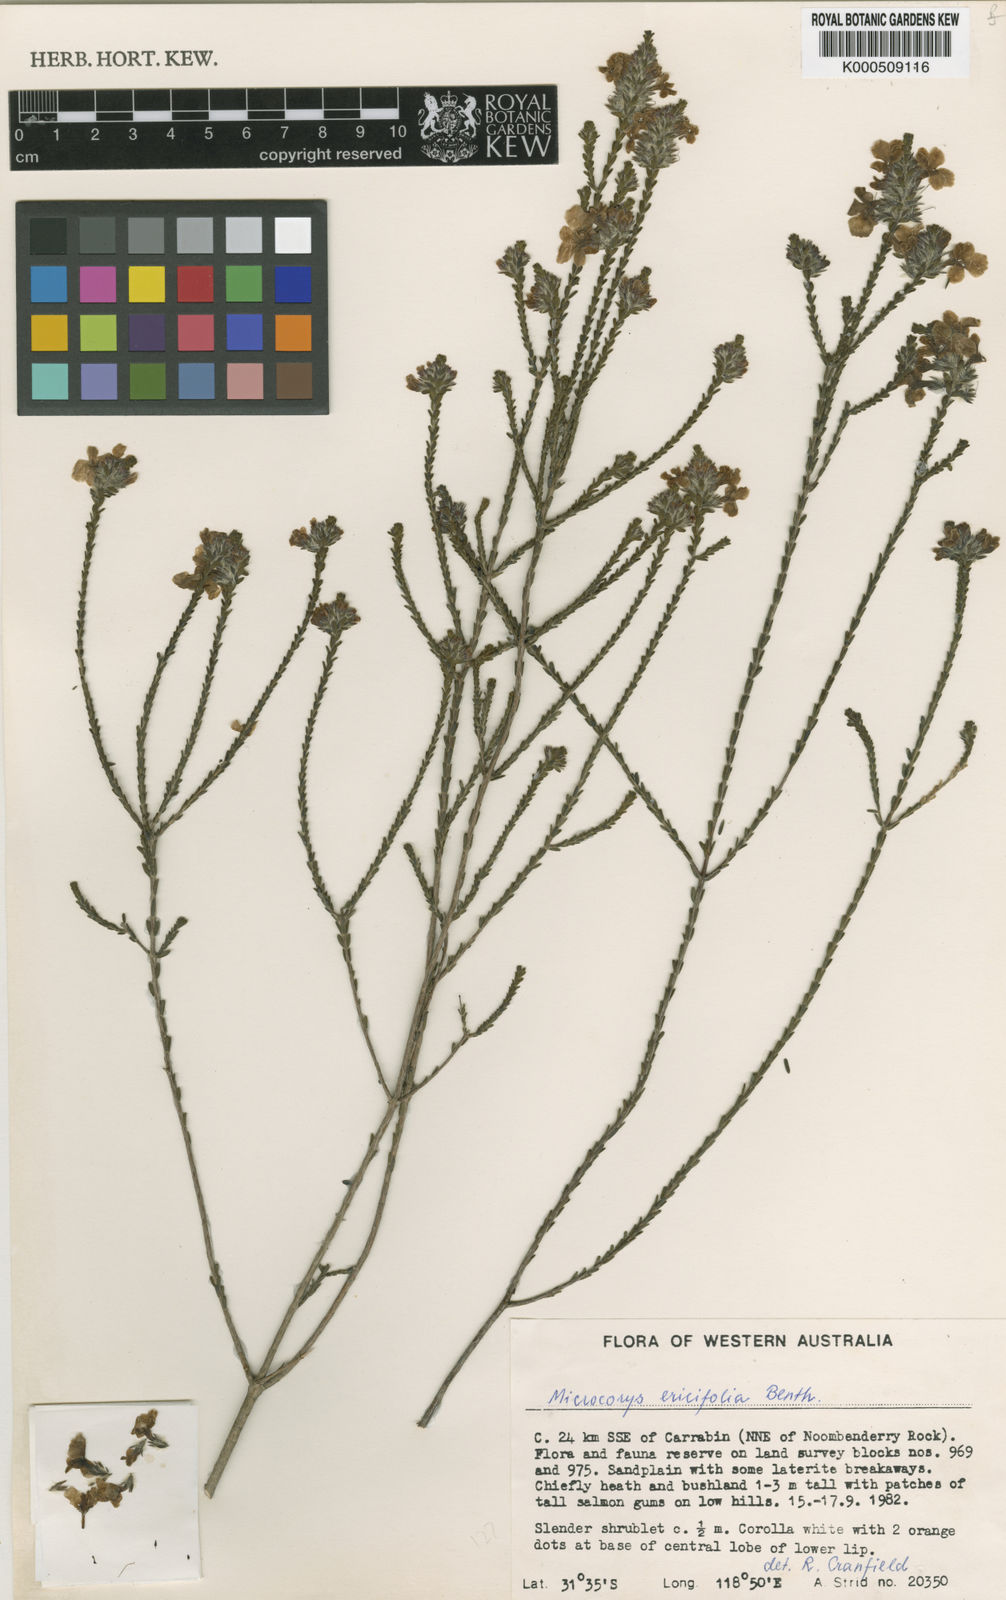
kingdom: Plantae
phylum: Tracheophyta
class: Magnoliopsida
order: Lamiales
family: Lamiaceae
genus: Microcorys
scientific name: Microcorys ericifolia
